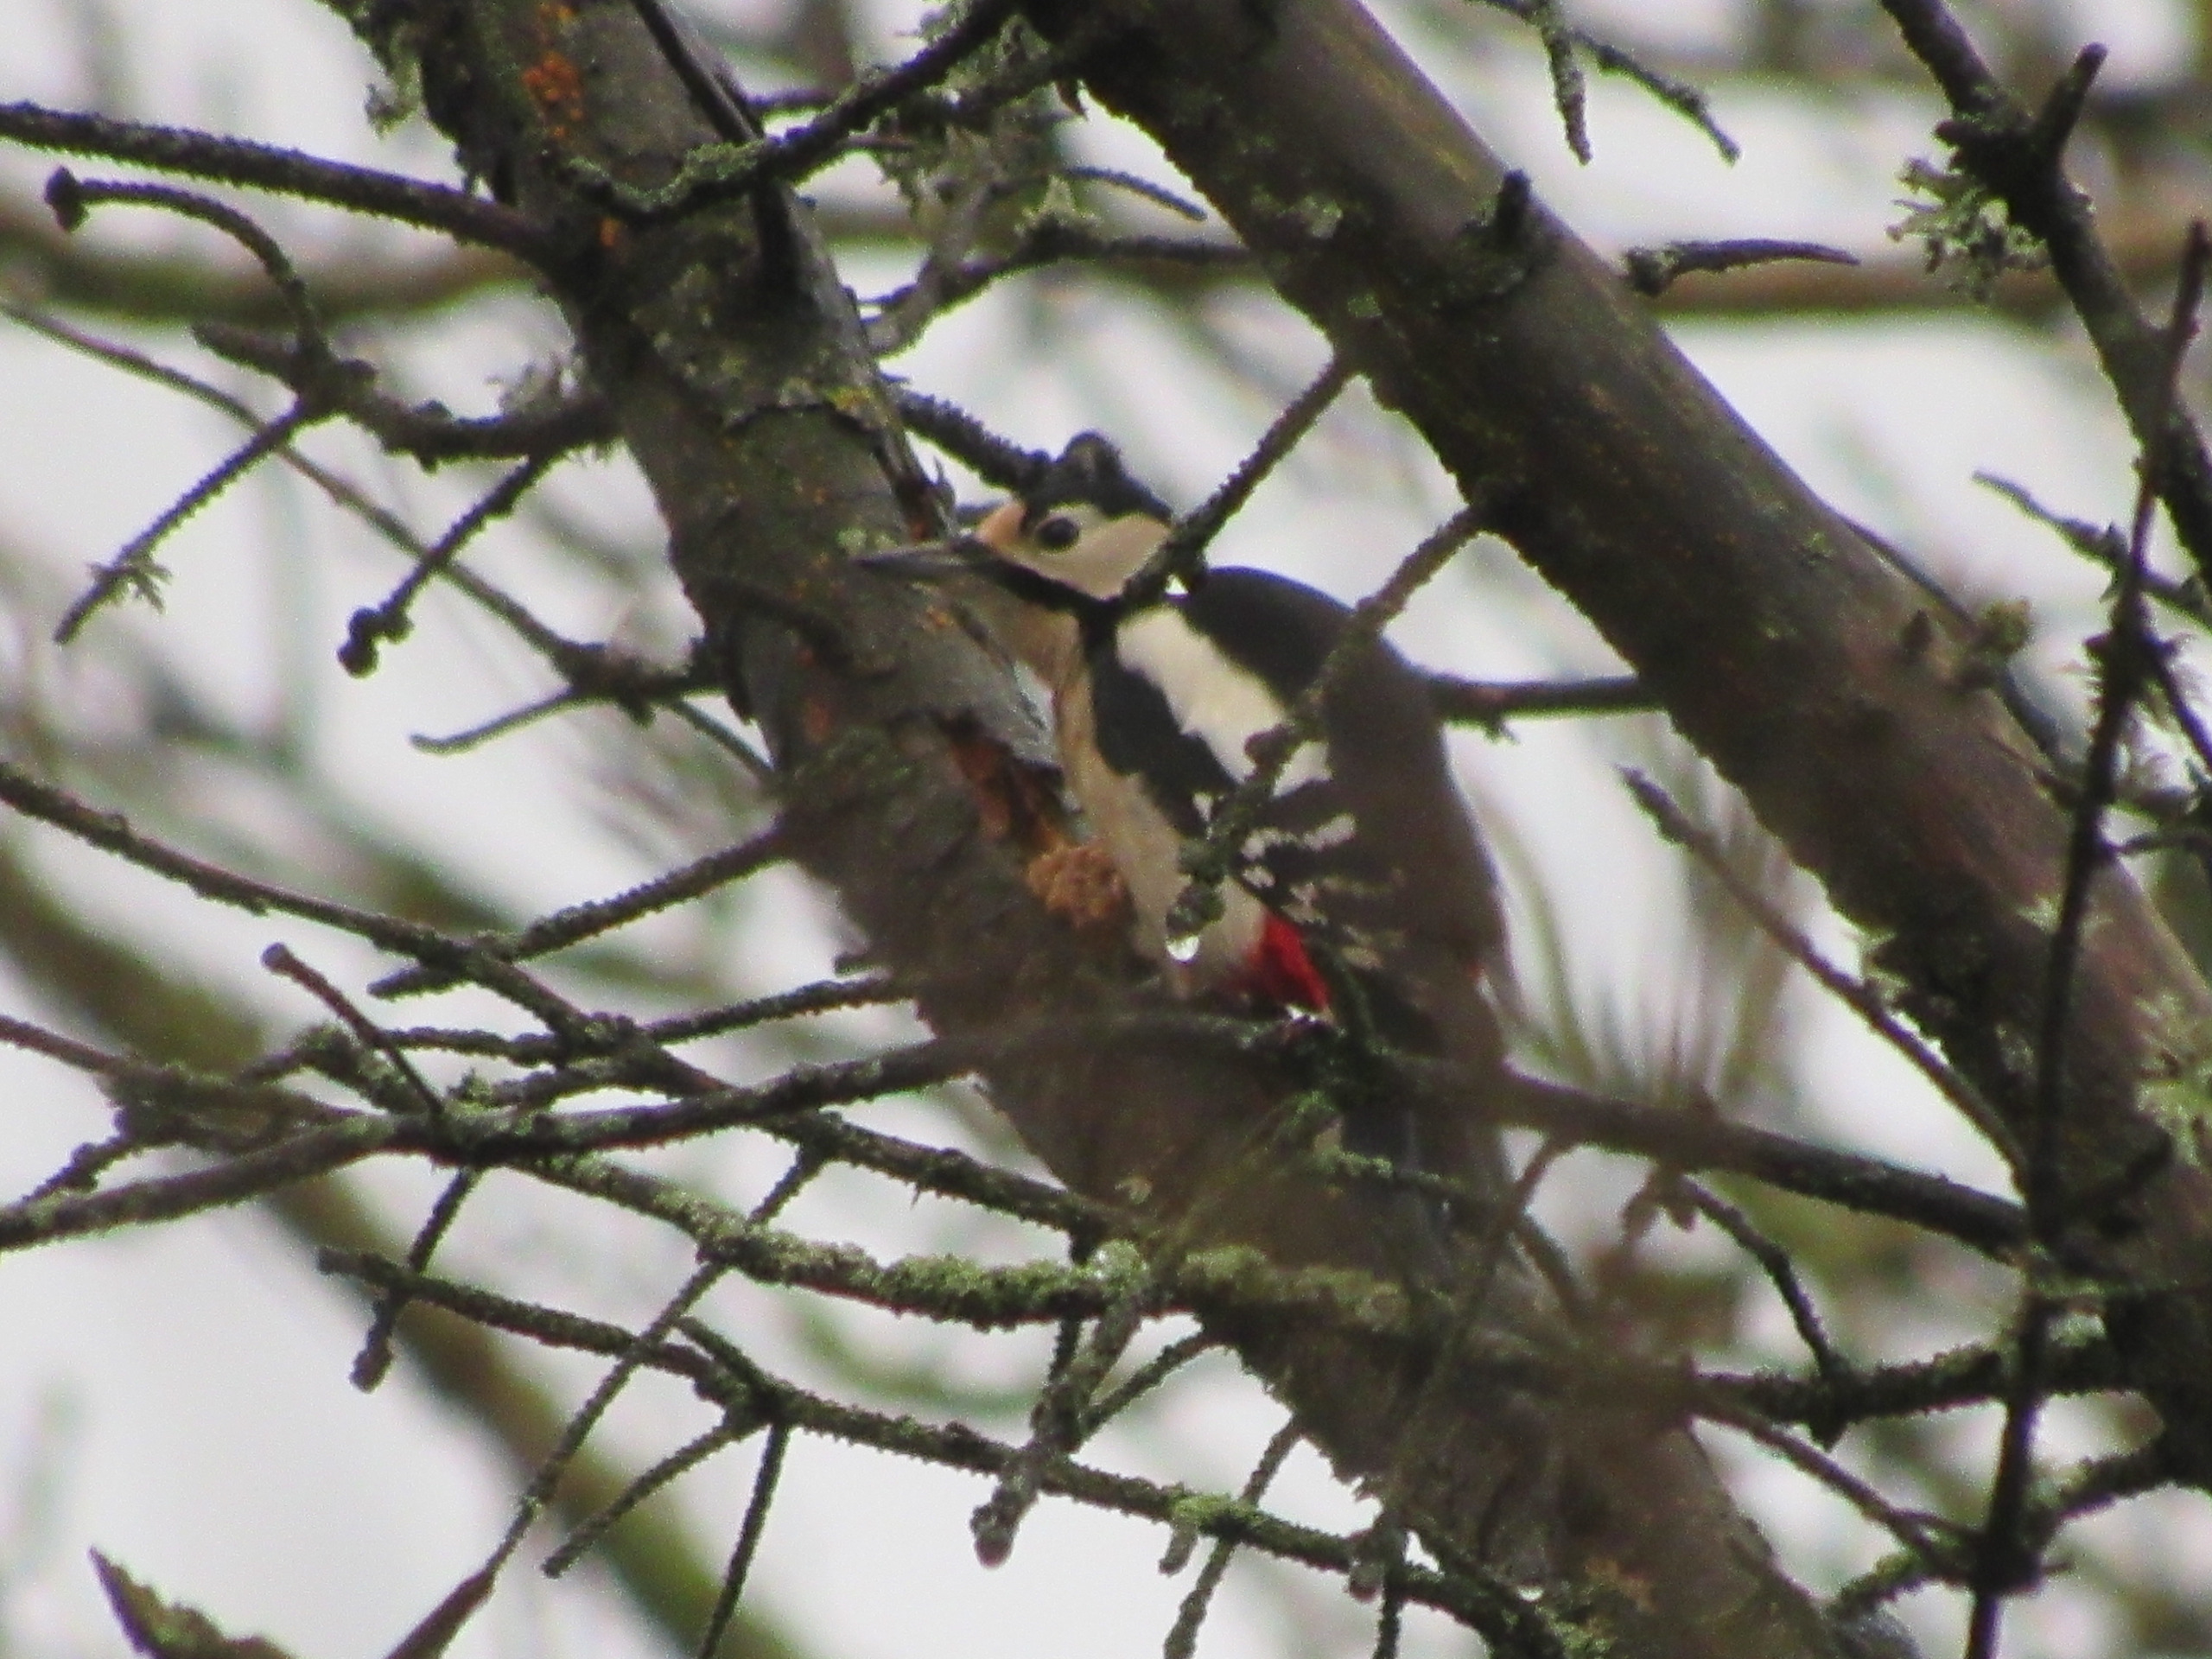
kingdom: Animalia
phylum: Chordata
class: Aves
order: Piciformes
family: Picidae
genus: Dendrocopos
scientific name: Dendrocopos major
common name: Stor flagspætte
